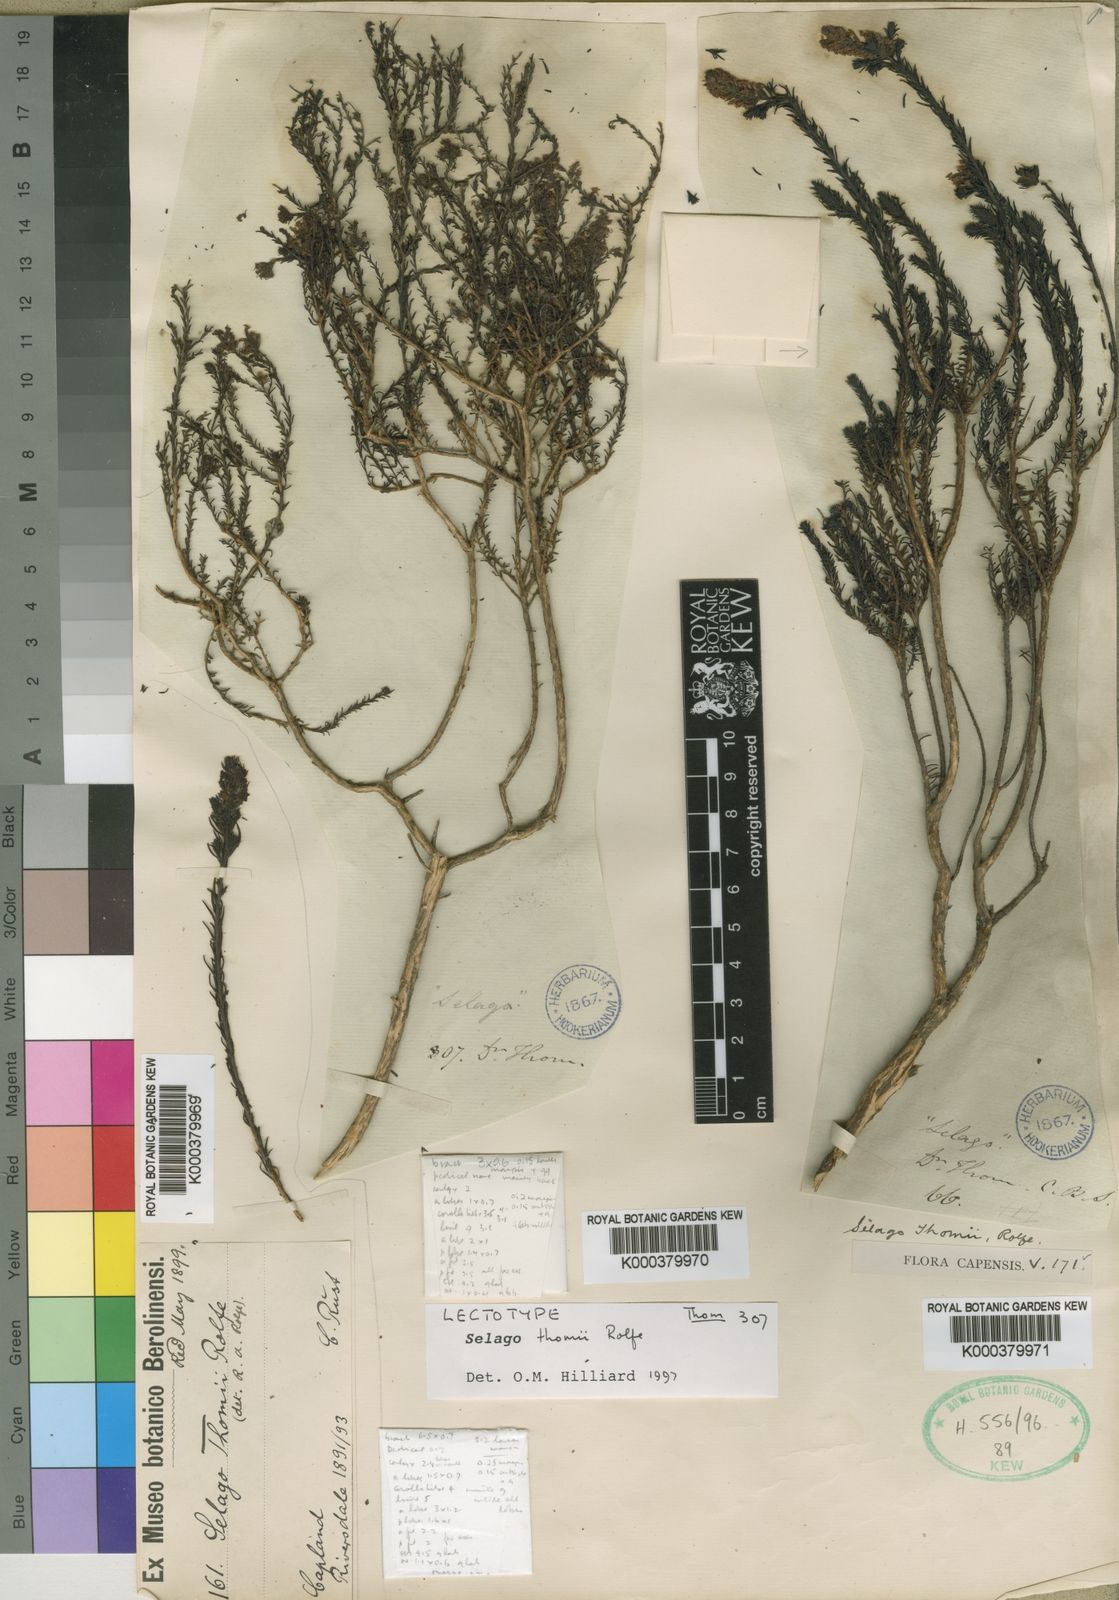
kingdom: Plantae
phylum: Tracheophyta
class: Magnoliopsida
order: Lamiales
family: Scrophulariaceae
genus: Selago
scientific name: Selago thomii
